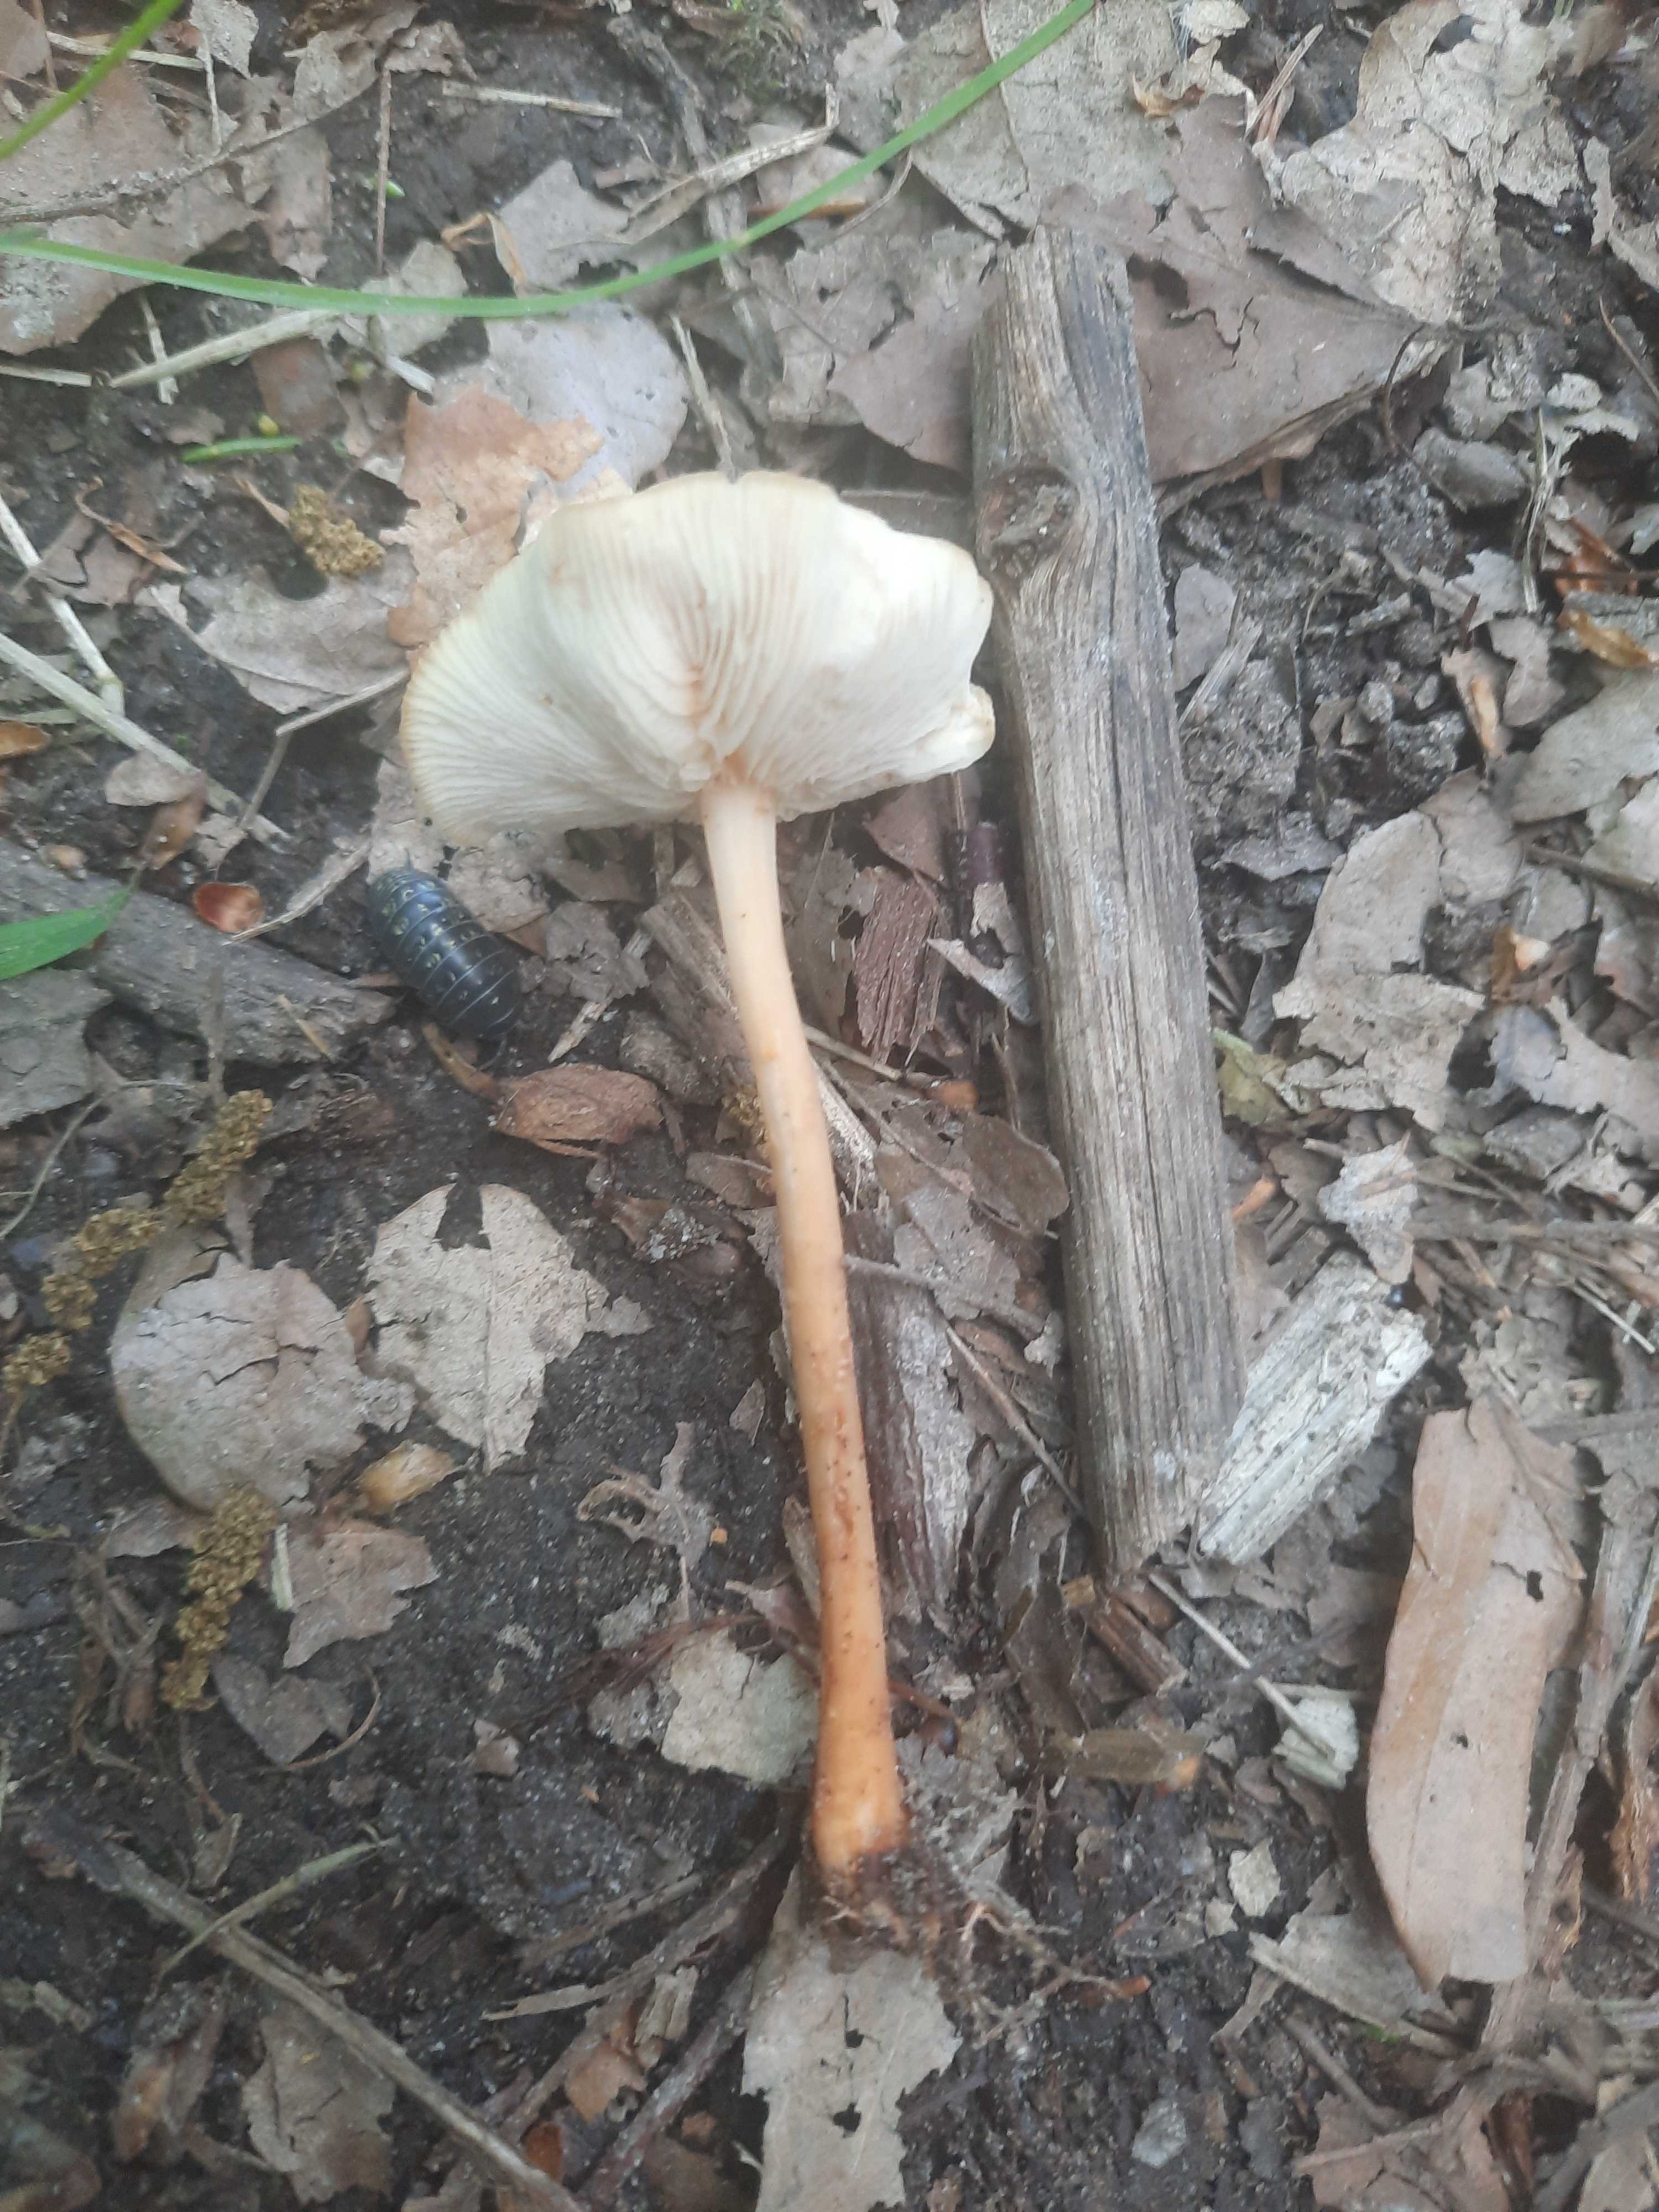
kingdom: Fungi
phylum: Basidiomycota
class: Agaricomycetes
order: Agaricales
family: Omphalotaceae
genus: Gymnopus
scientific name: Gymnopus
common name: fladhat
